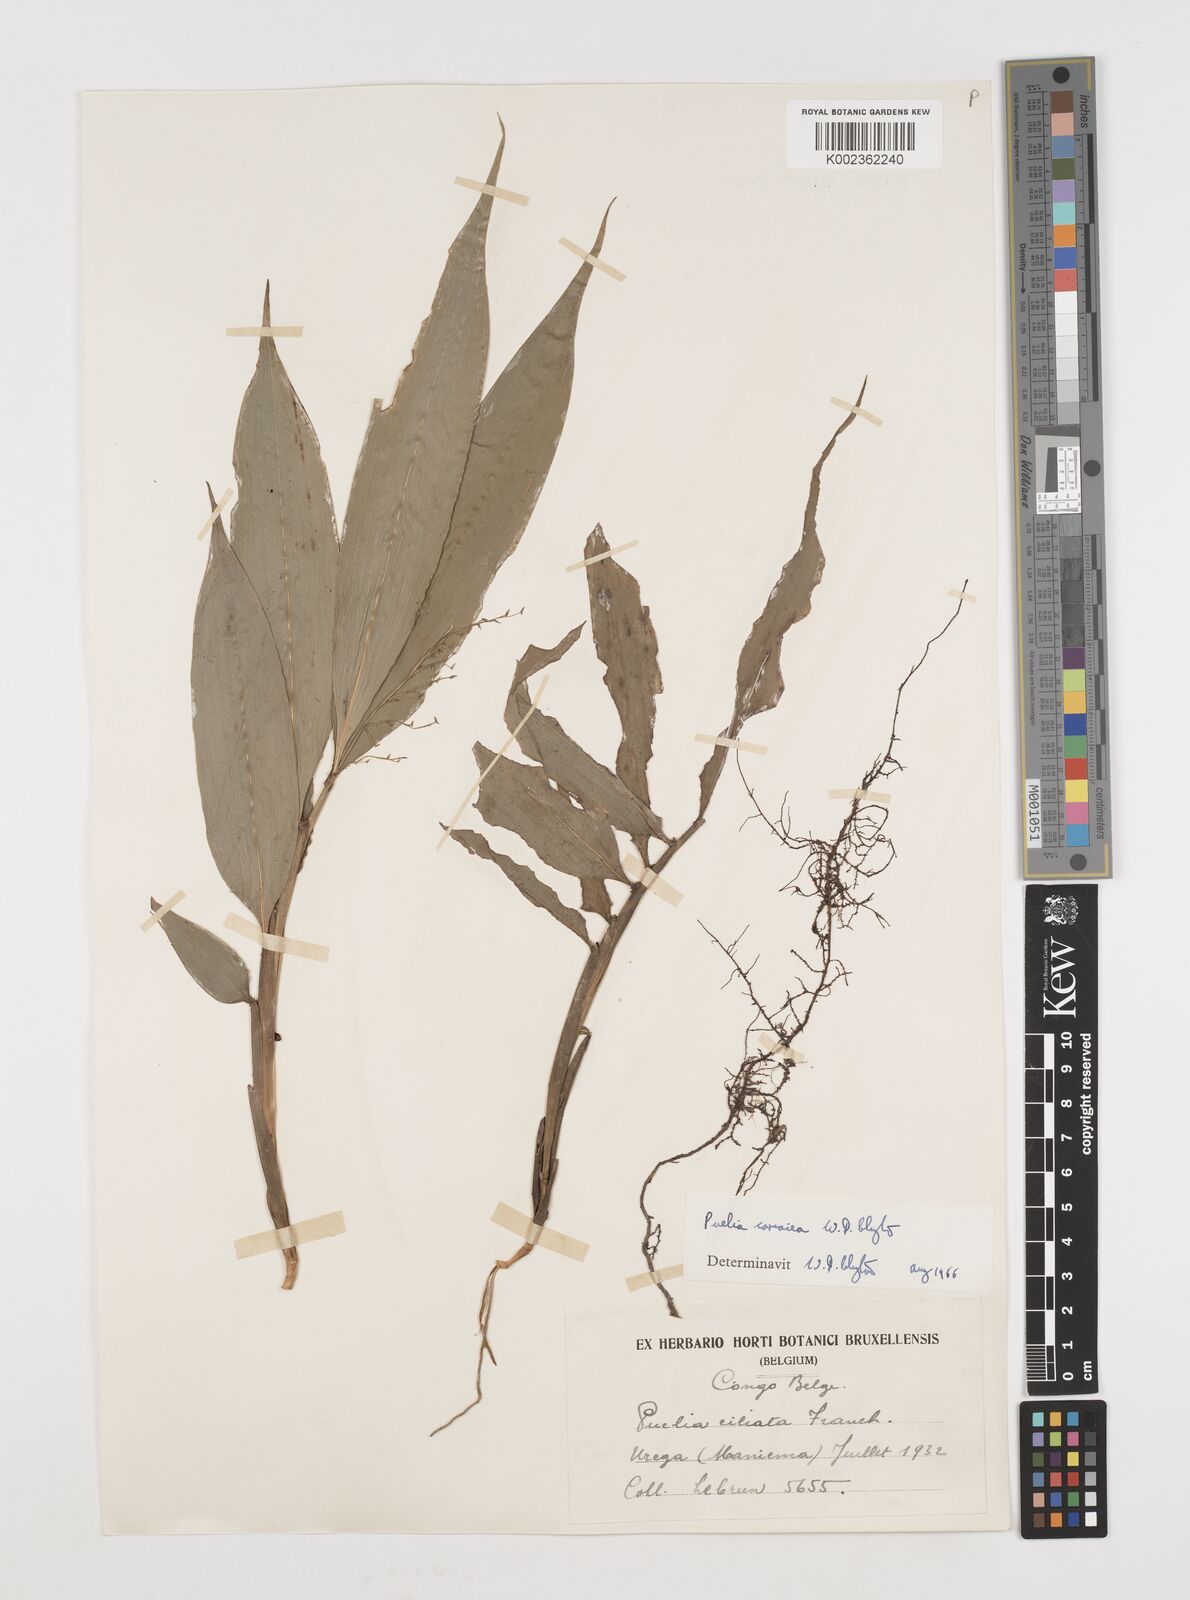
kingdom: Plantae
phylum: Tracheophyta
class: Liliopsida
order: Poales
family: Poaceae
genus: Puelia
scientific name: Puelia coriacea
